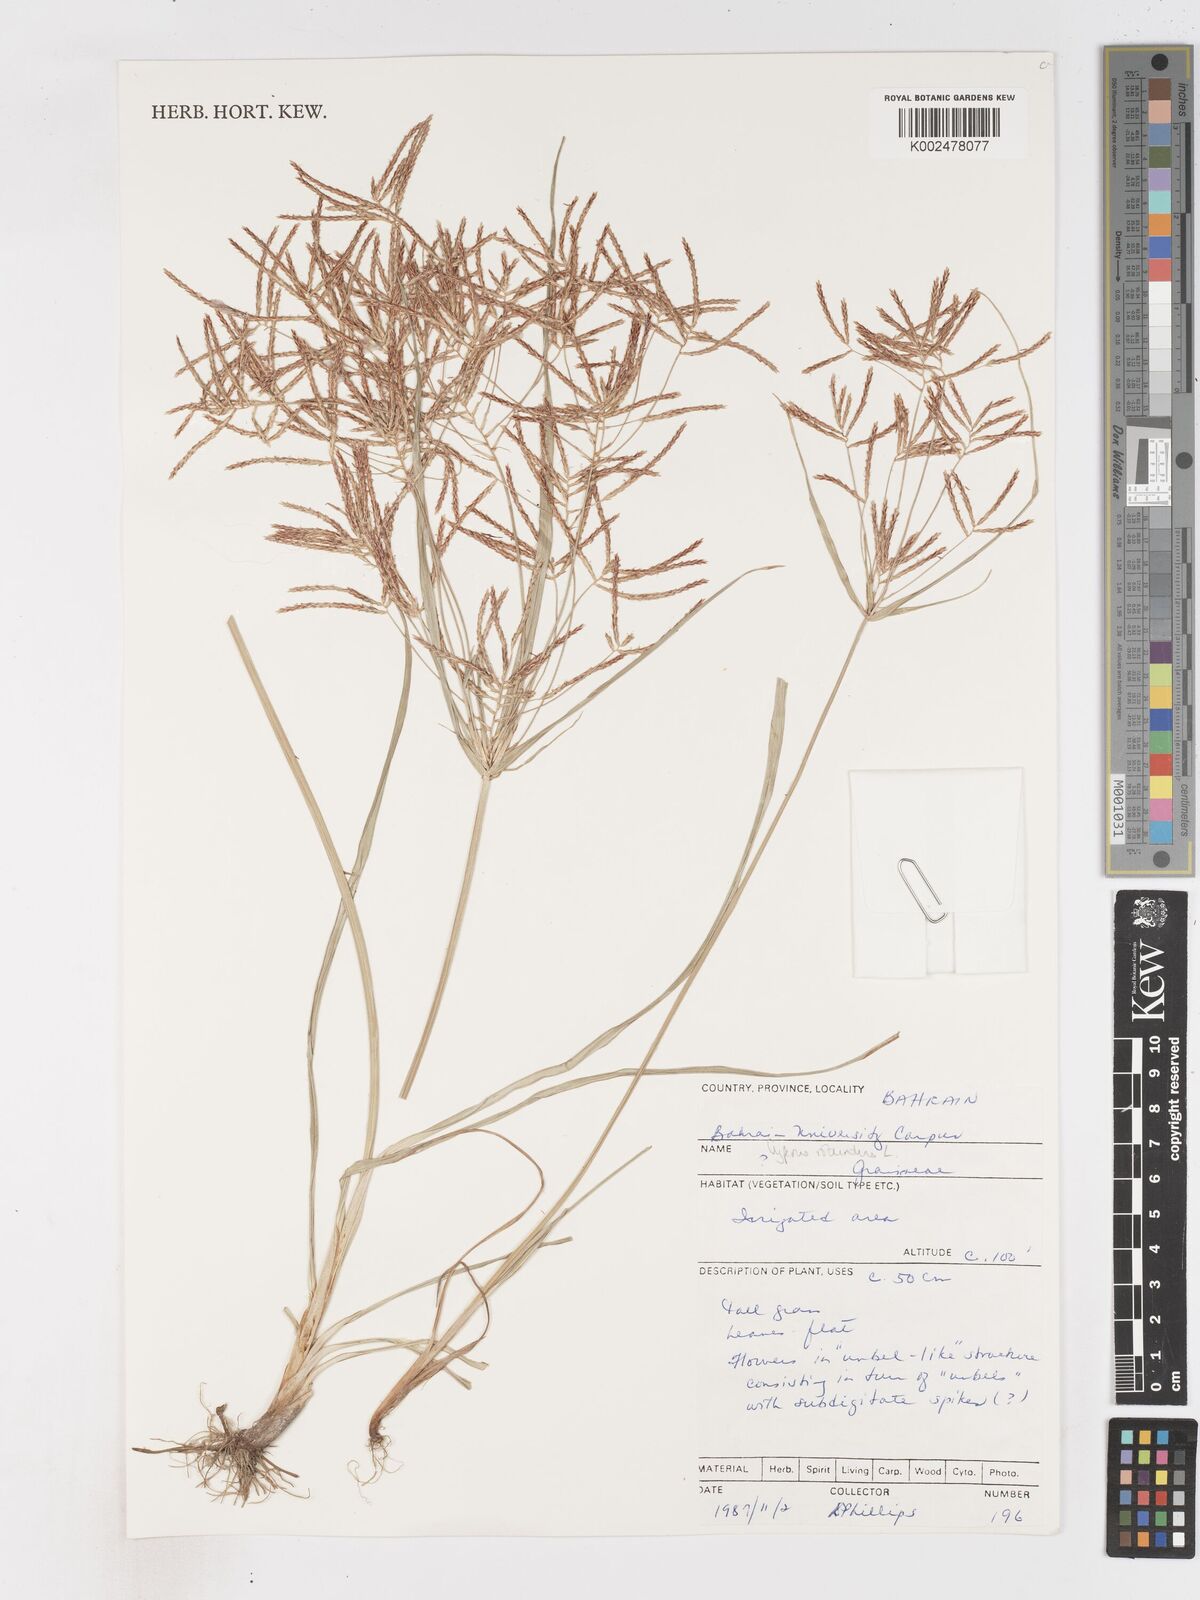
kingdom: Plantae
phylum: Tracheophyta
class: Liliopsida
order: Poales
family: Cyperaceae
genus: Cyperus
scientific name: Cyperus rotundus
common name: Nutgrass
